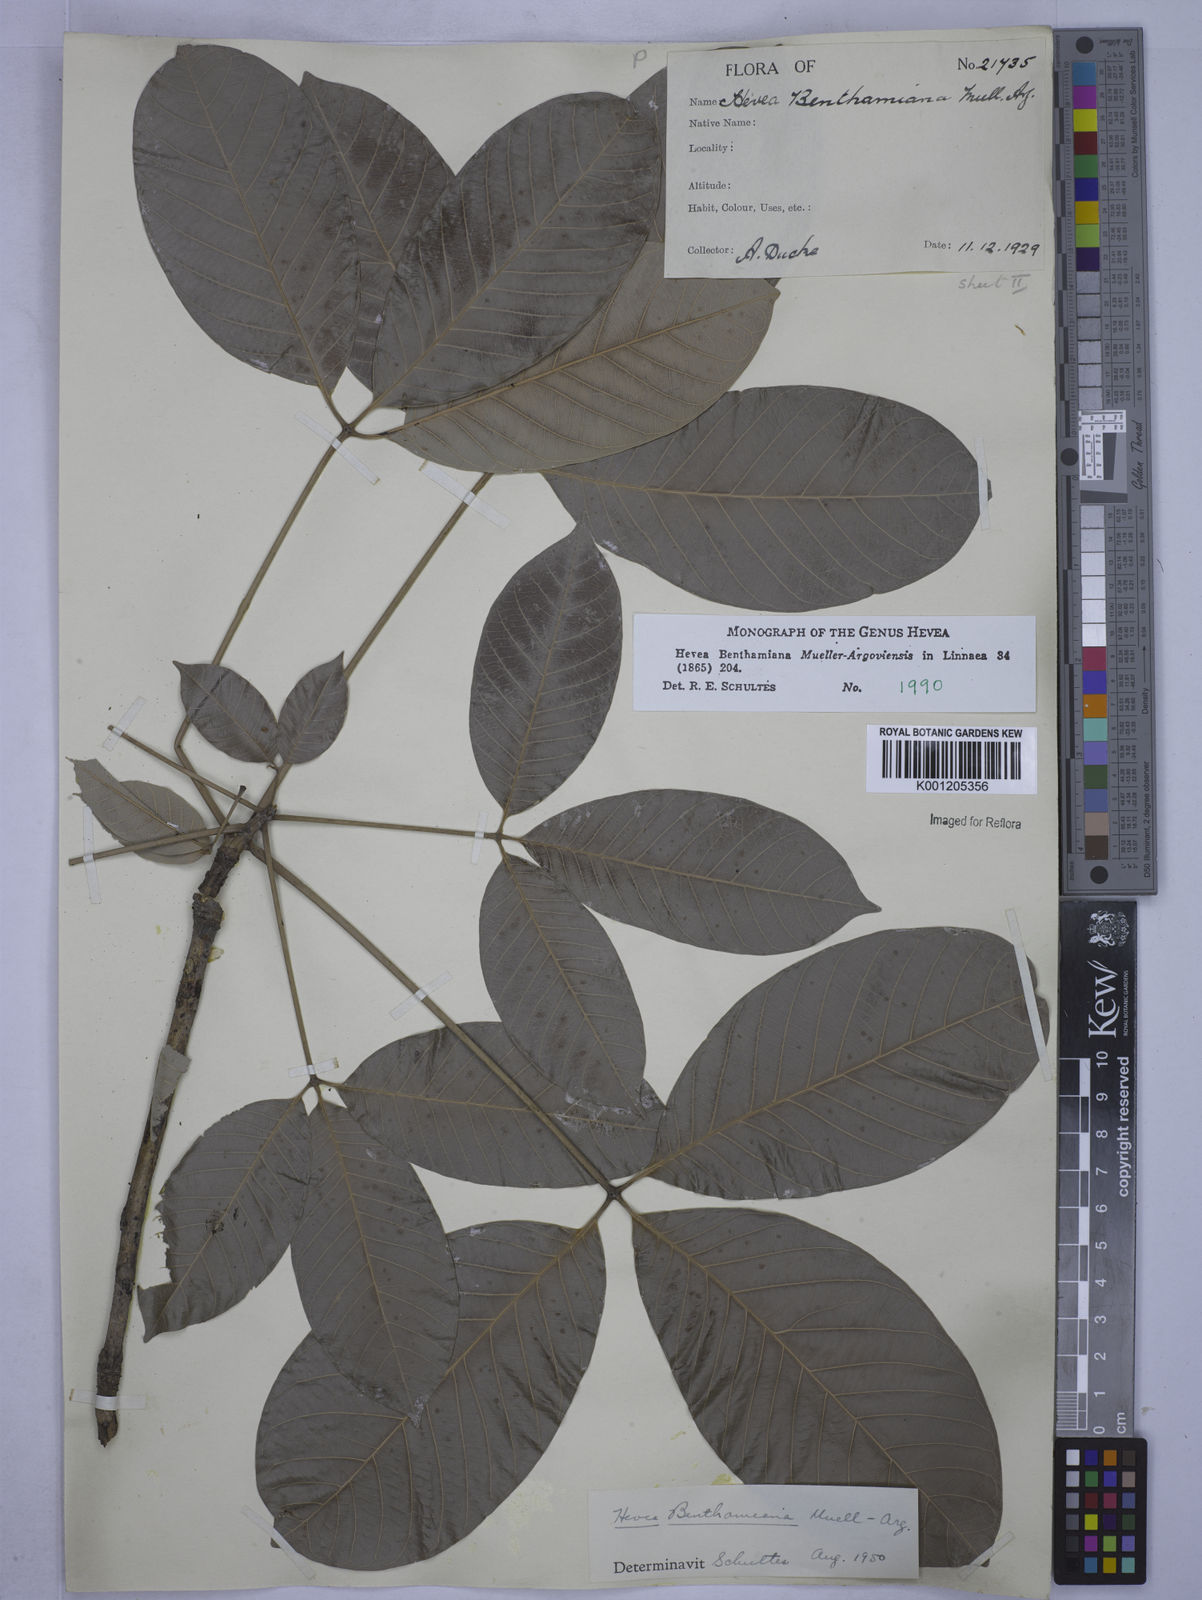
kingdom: Plantae
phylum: Tracheophyta
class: Magnoliopsida
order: Malpighiales
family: Euphorbiaceae
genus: Hevea
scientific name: Hevea
